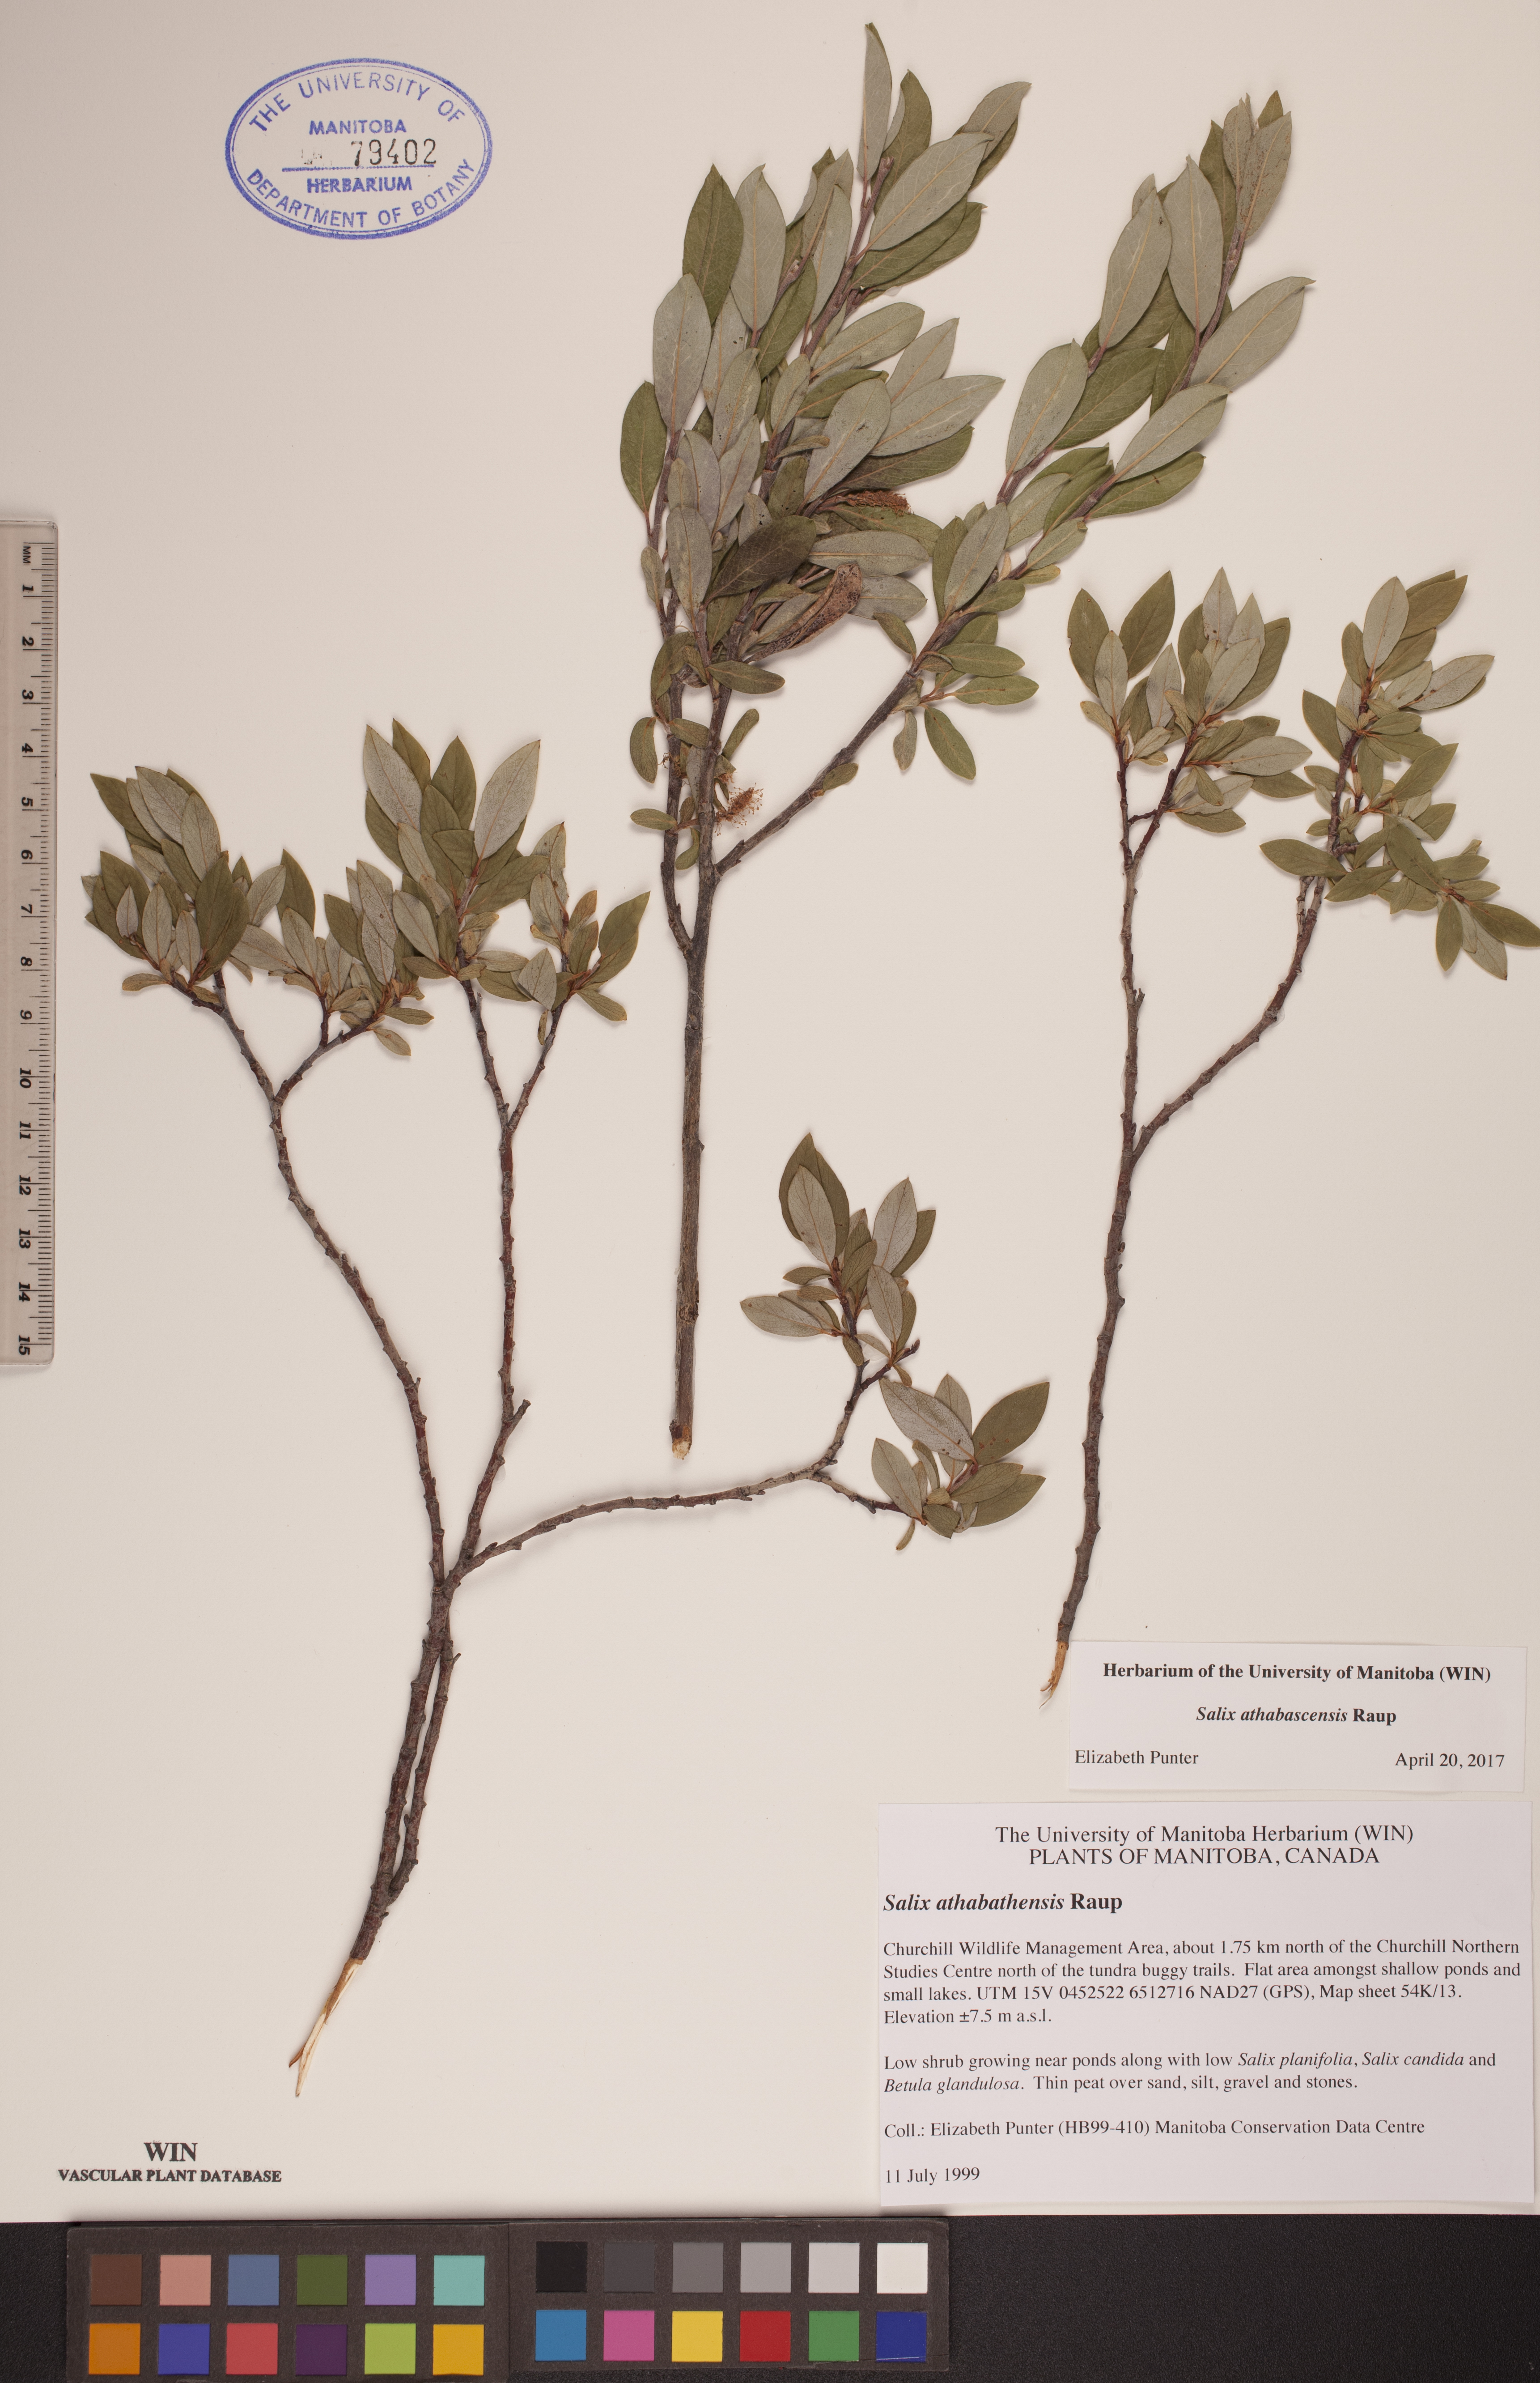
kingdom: Plantae
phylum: Tracheophyta
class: Magnoliopsida
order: Malpighiales
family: Salicaceae
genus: Salix
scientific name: Salix athabascensis
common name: Athabasca willow
